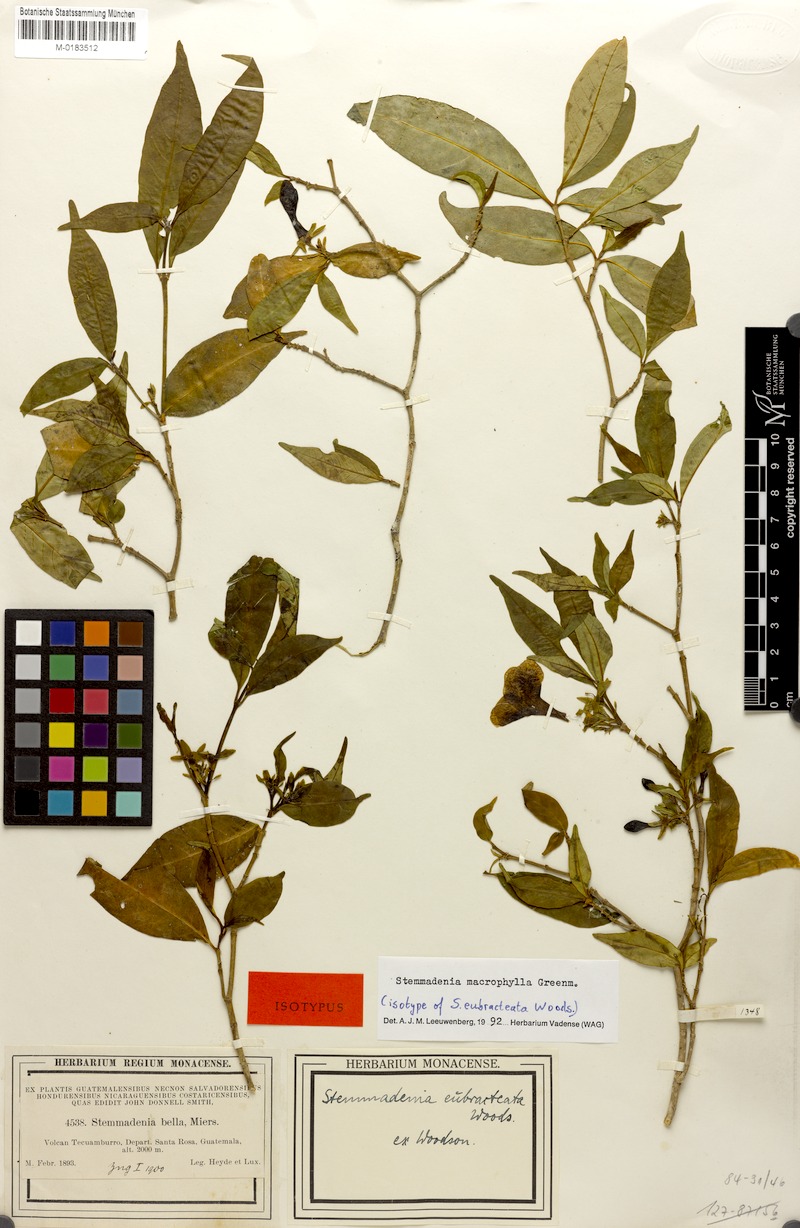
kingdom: Plantae
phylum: Tracheophyta
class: Magnoliopsida
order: Gentianales
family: Apocynaceae
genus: Tabernaemontana
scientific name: Tabernaemontana litoralis
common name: Milkwood
